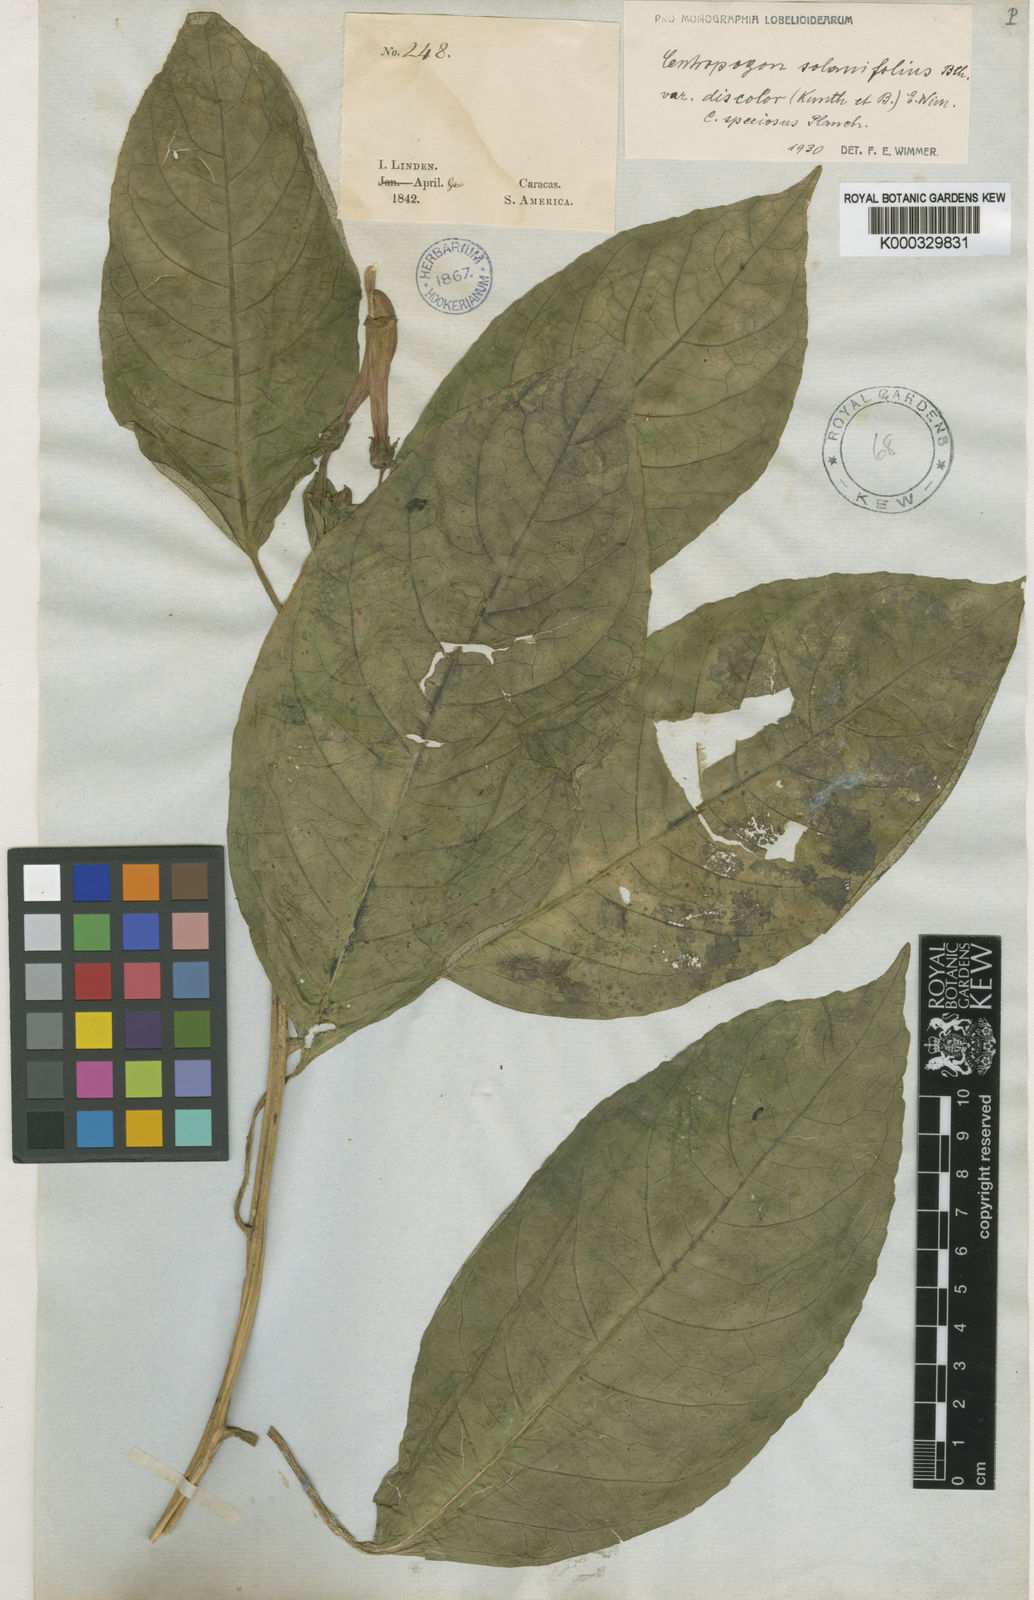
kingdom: Plantae
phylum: Tracheophyta
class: Magnoliopsida
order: Asterales
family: Campanulaceae
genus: Centropogon
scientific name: Centropogon solanifolius
